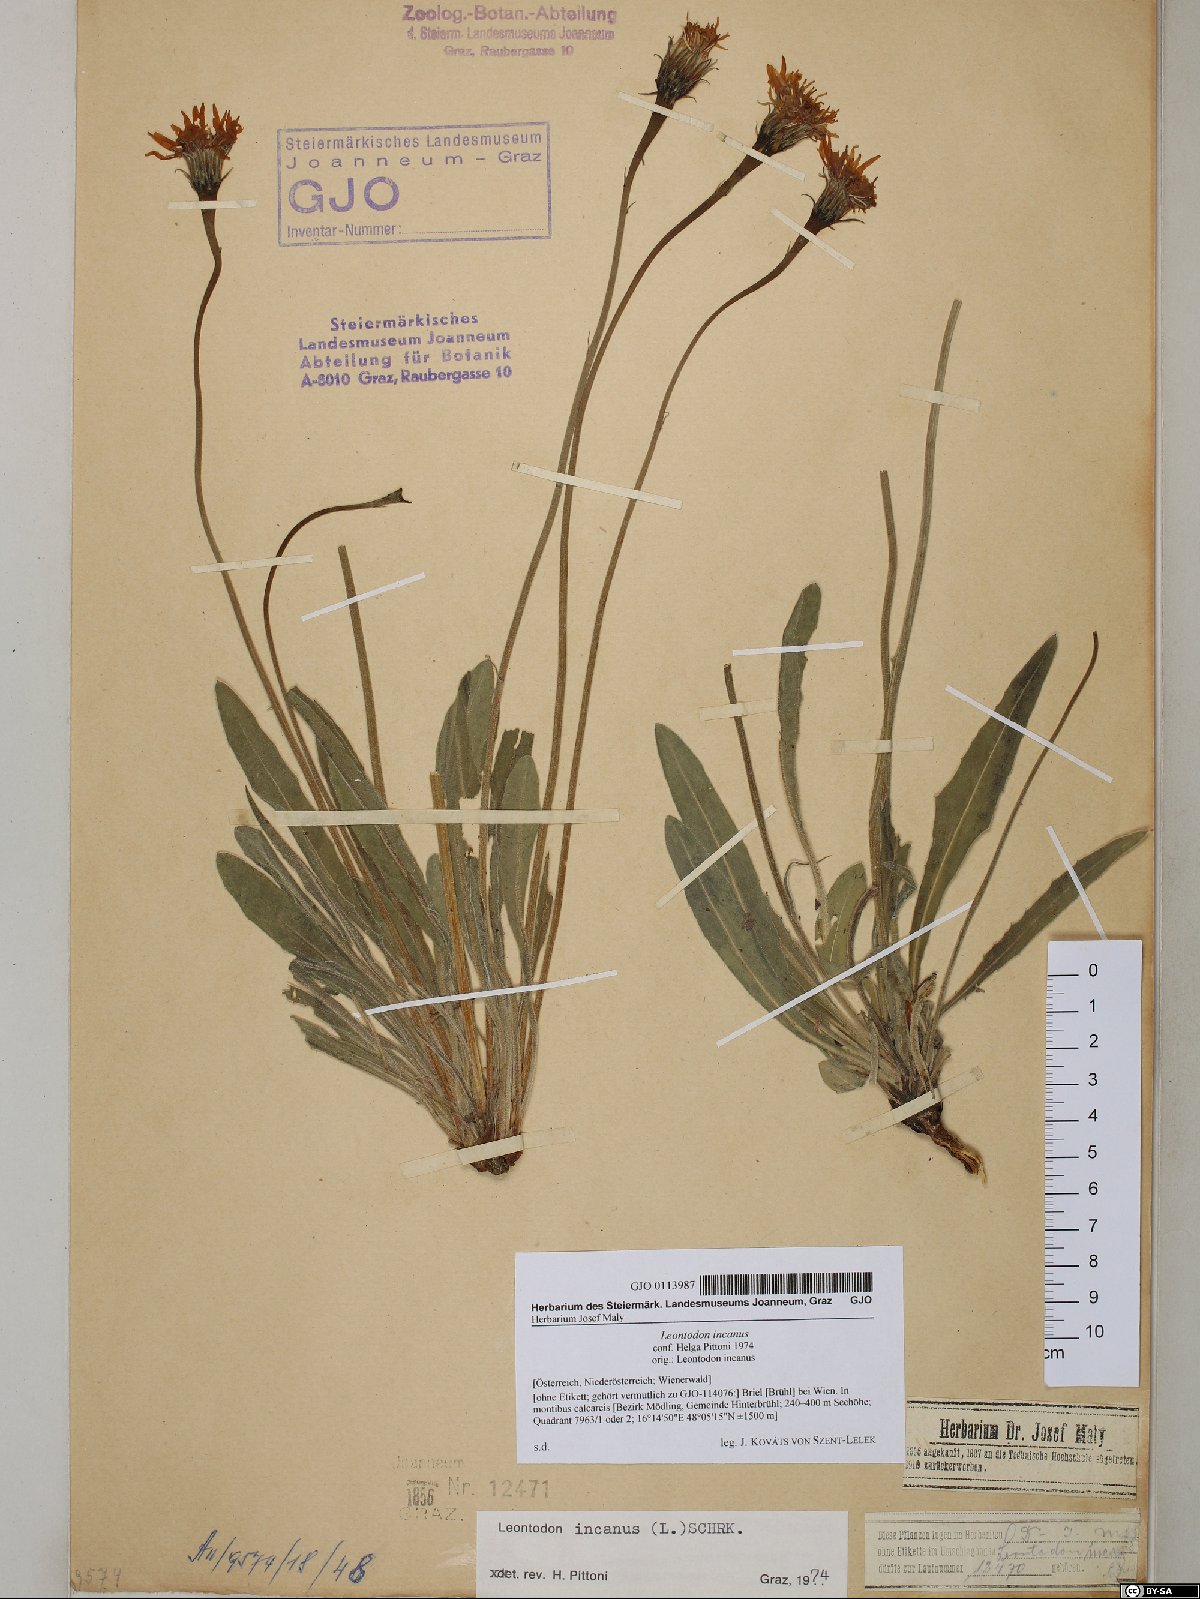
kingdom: Plantae
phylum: Tracheophyta
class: Magnoliopsida
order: Asterales
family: Asteraceae
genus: Leontodon
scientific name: Leontodon incanus
